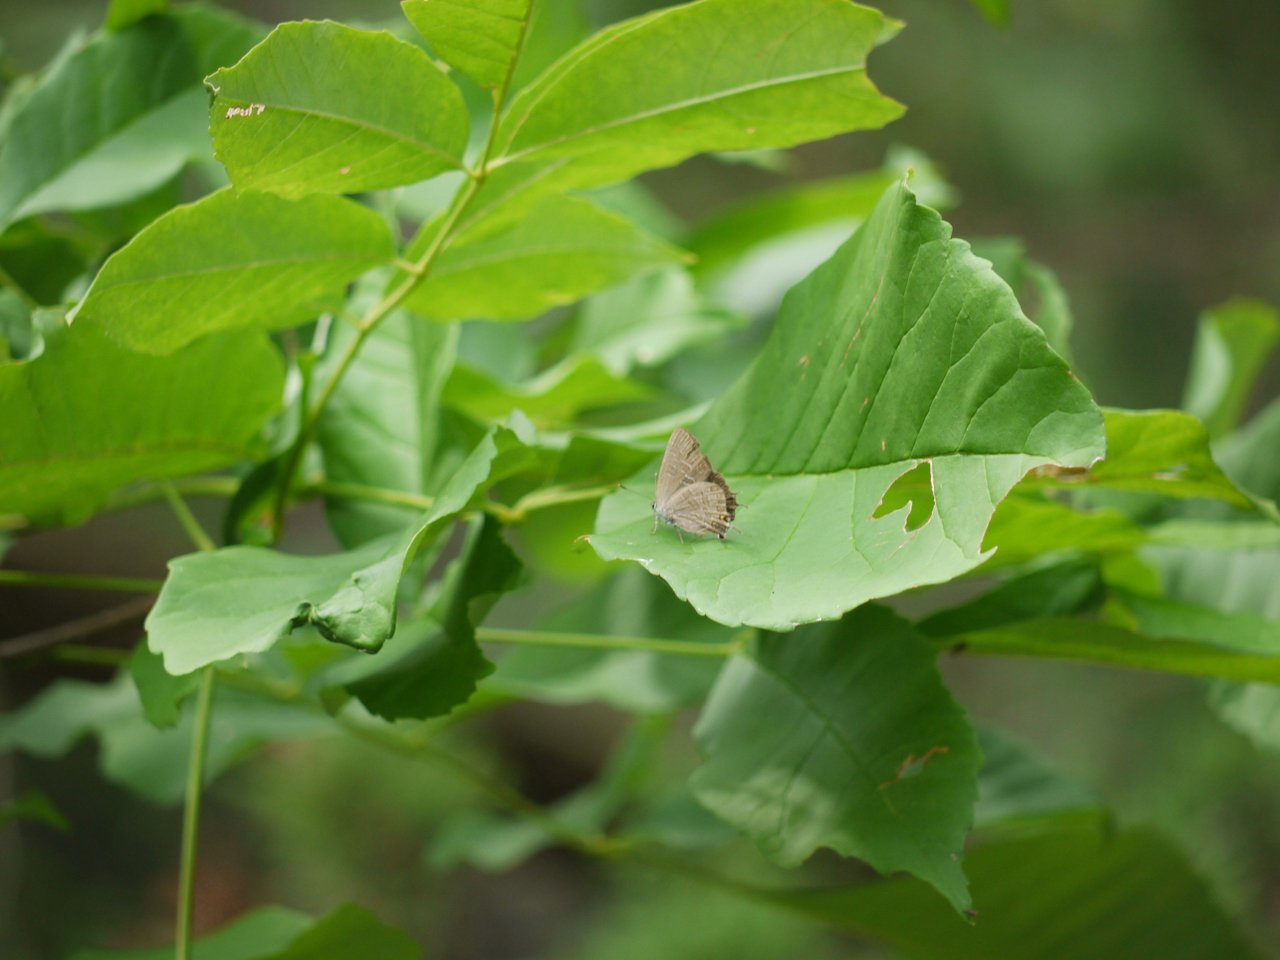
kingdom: Animalia
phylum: Arthropoda
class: Insecta
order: Lepidoptera
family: Lycaenidae
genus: Satyrium
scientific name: Satyrium liparops
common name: Striped Hairstreak
